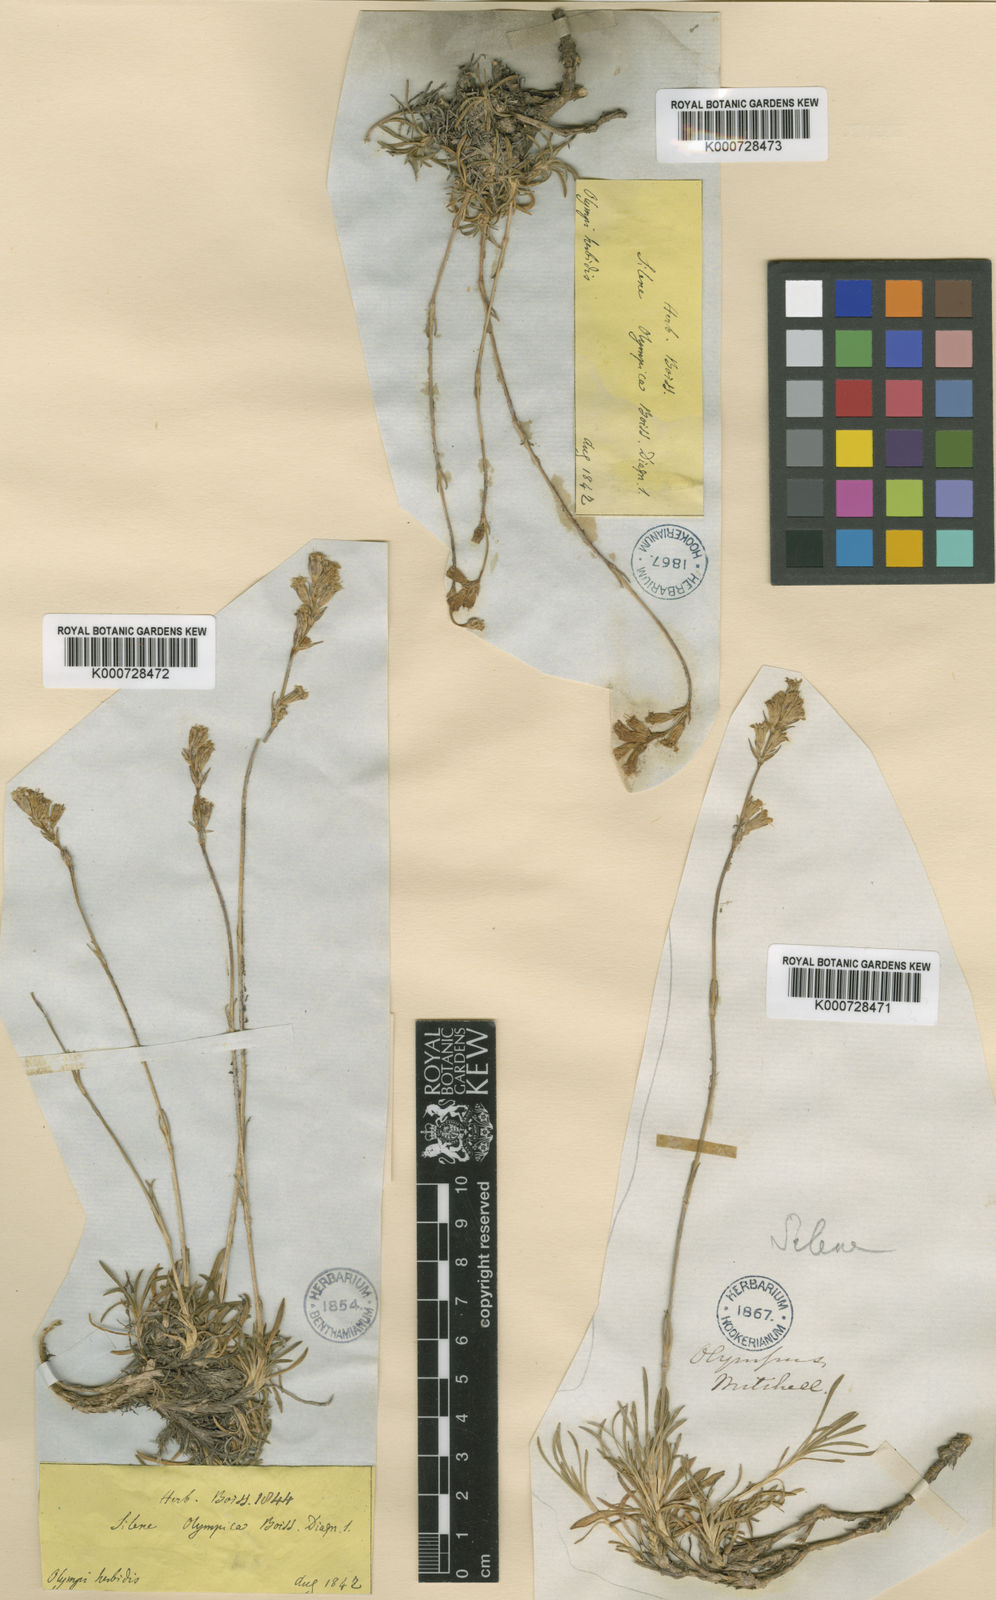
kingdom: Plantae
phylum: Tracheophyta
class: Magnoliopsida
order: Caryophyllales
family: Caryophyllaceae
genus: Silene
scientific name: Silene olympica
